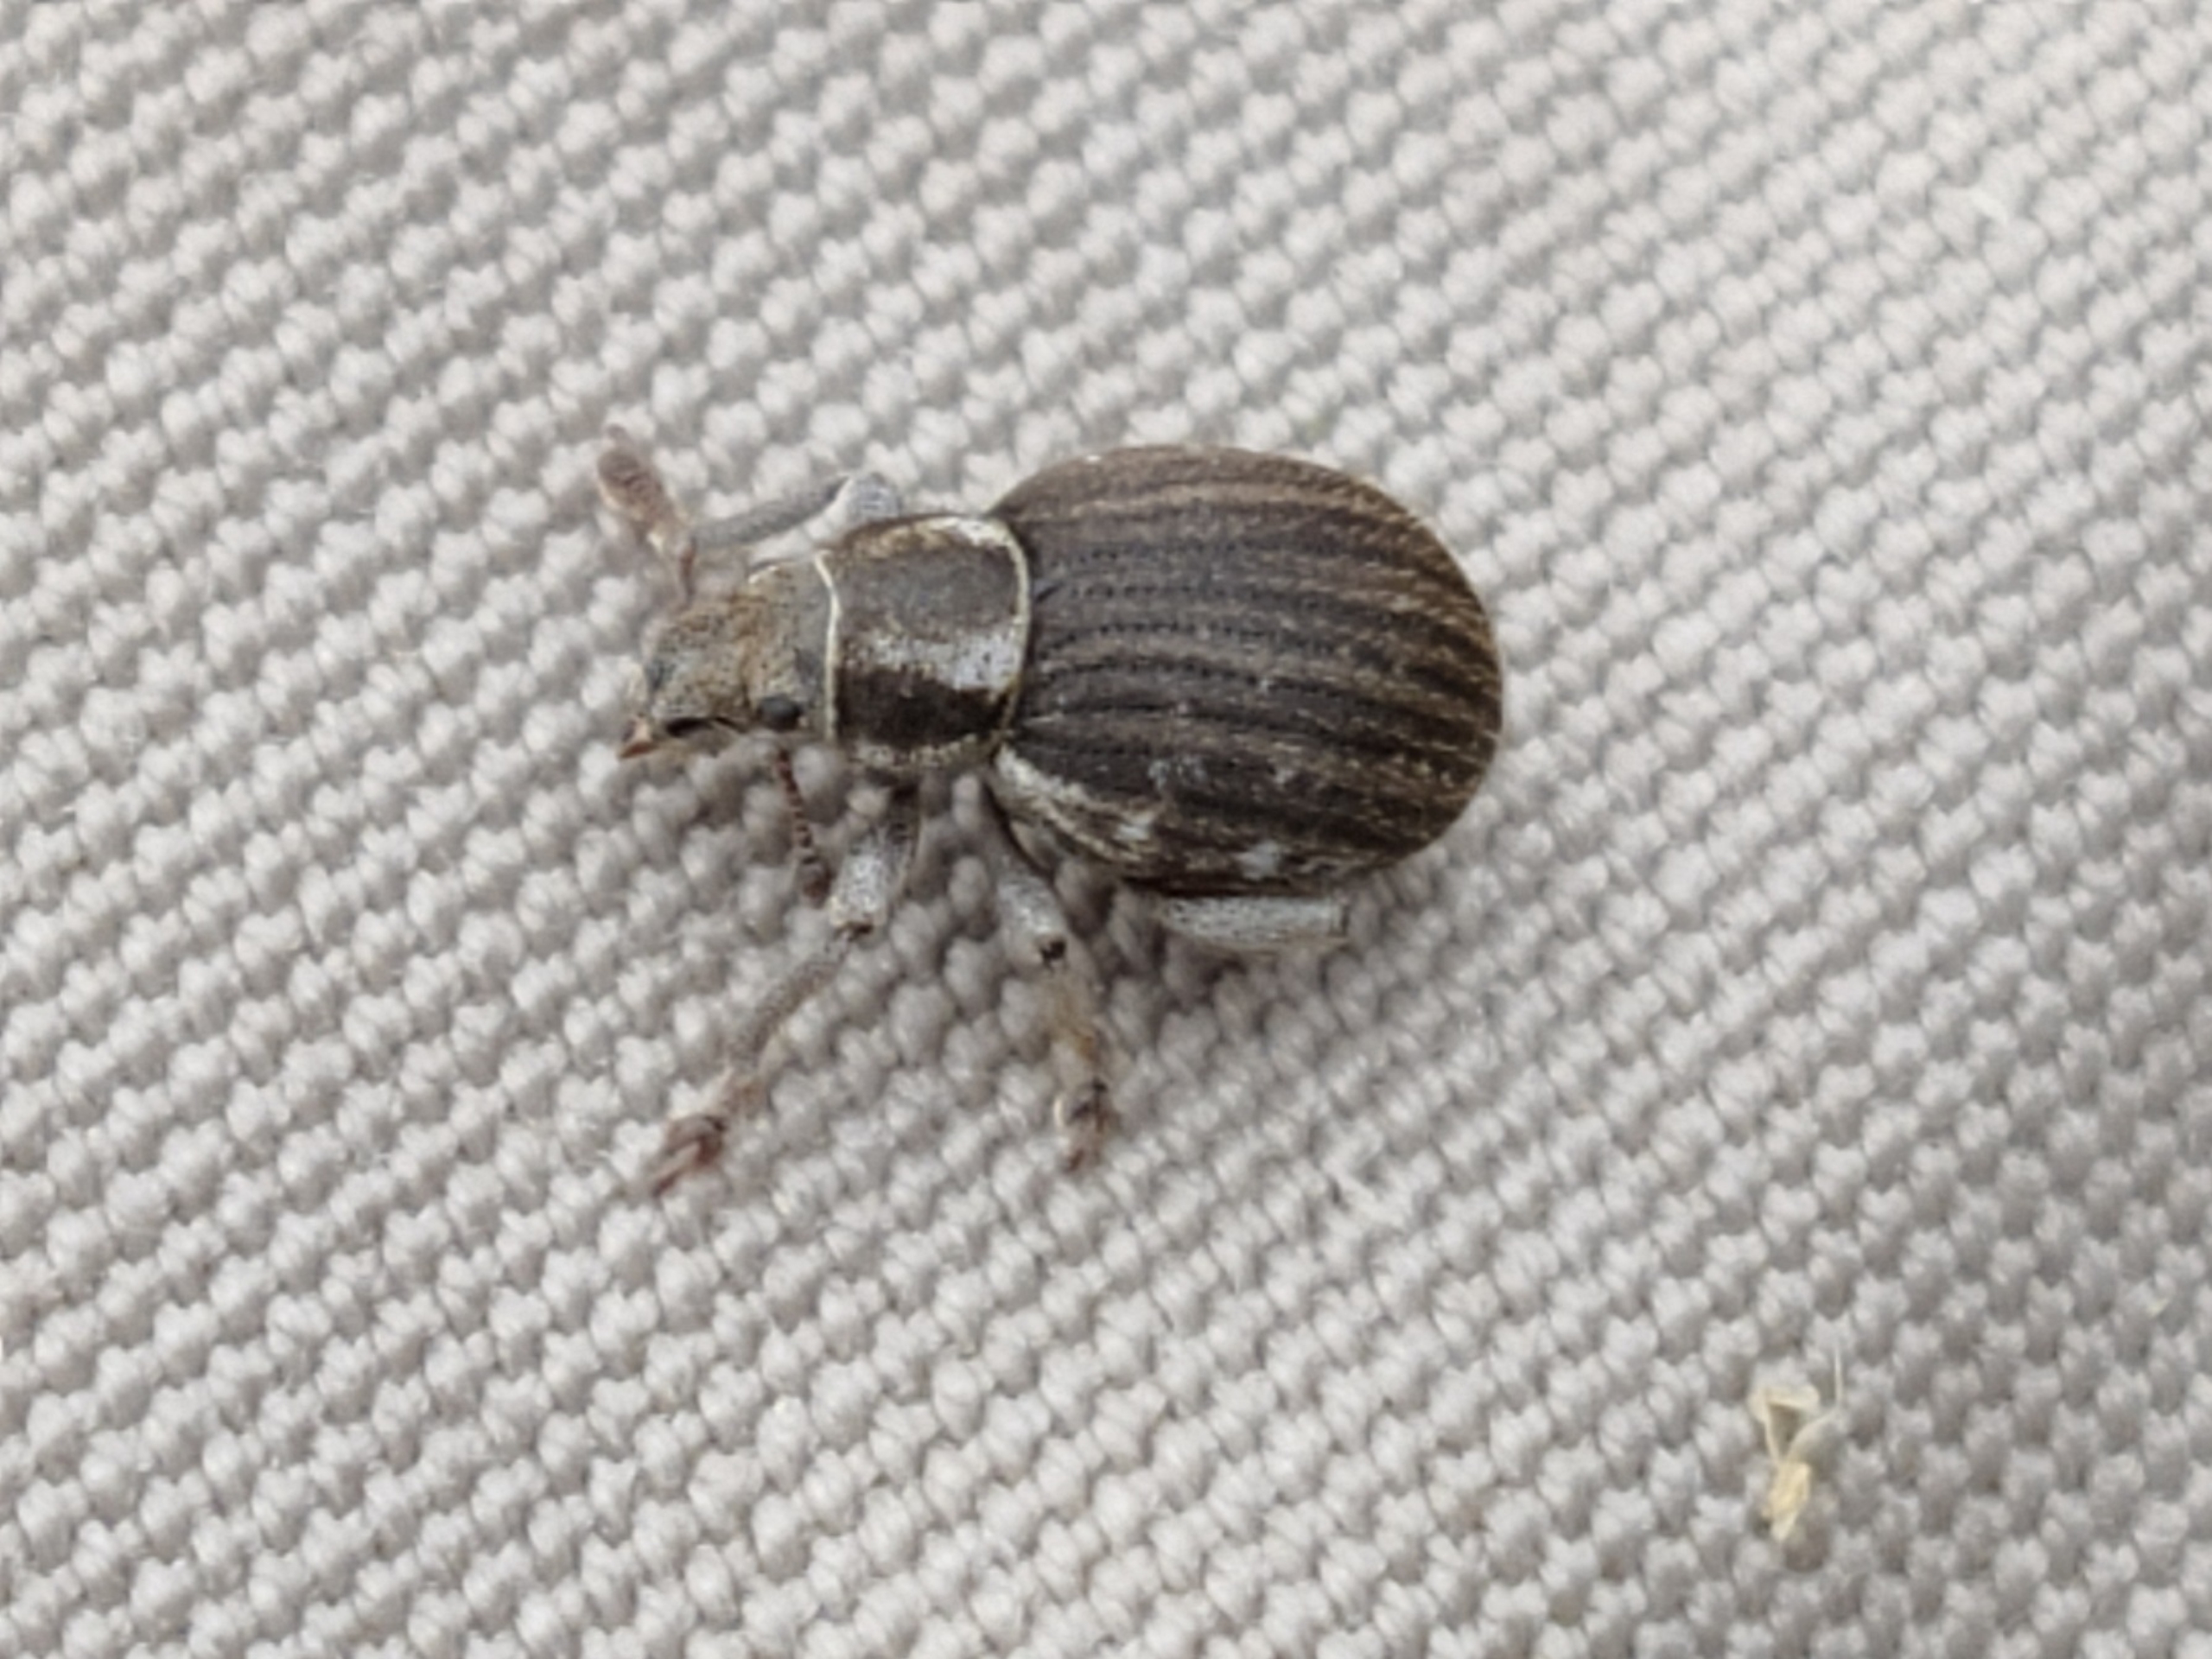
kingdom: Animalia
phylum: Arthropoda
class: Insecta
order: Coleoptera
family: Curculionidae
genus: Philopedon
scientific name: Philopedon plagiatum
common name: Sandgråsnude
